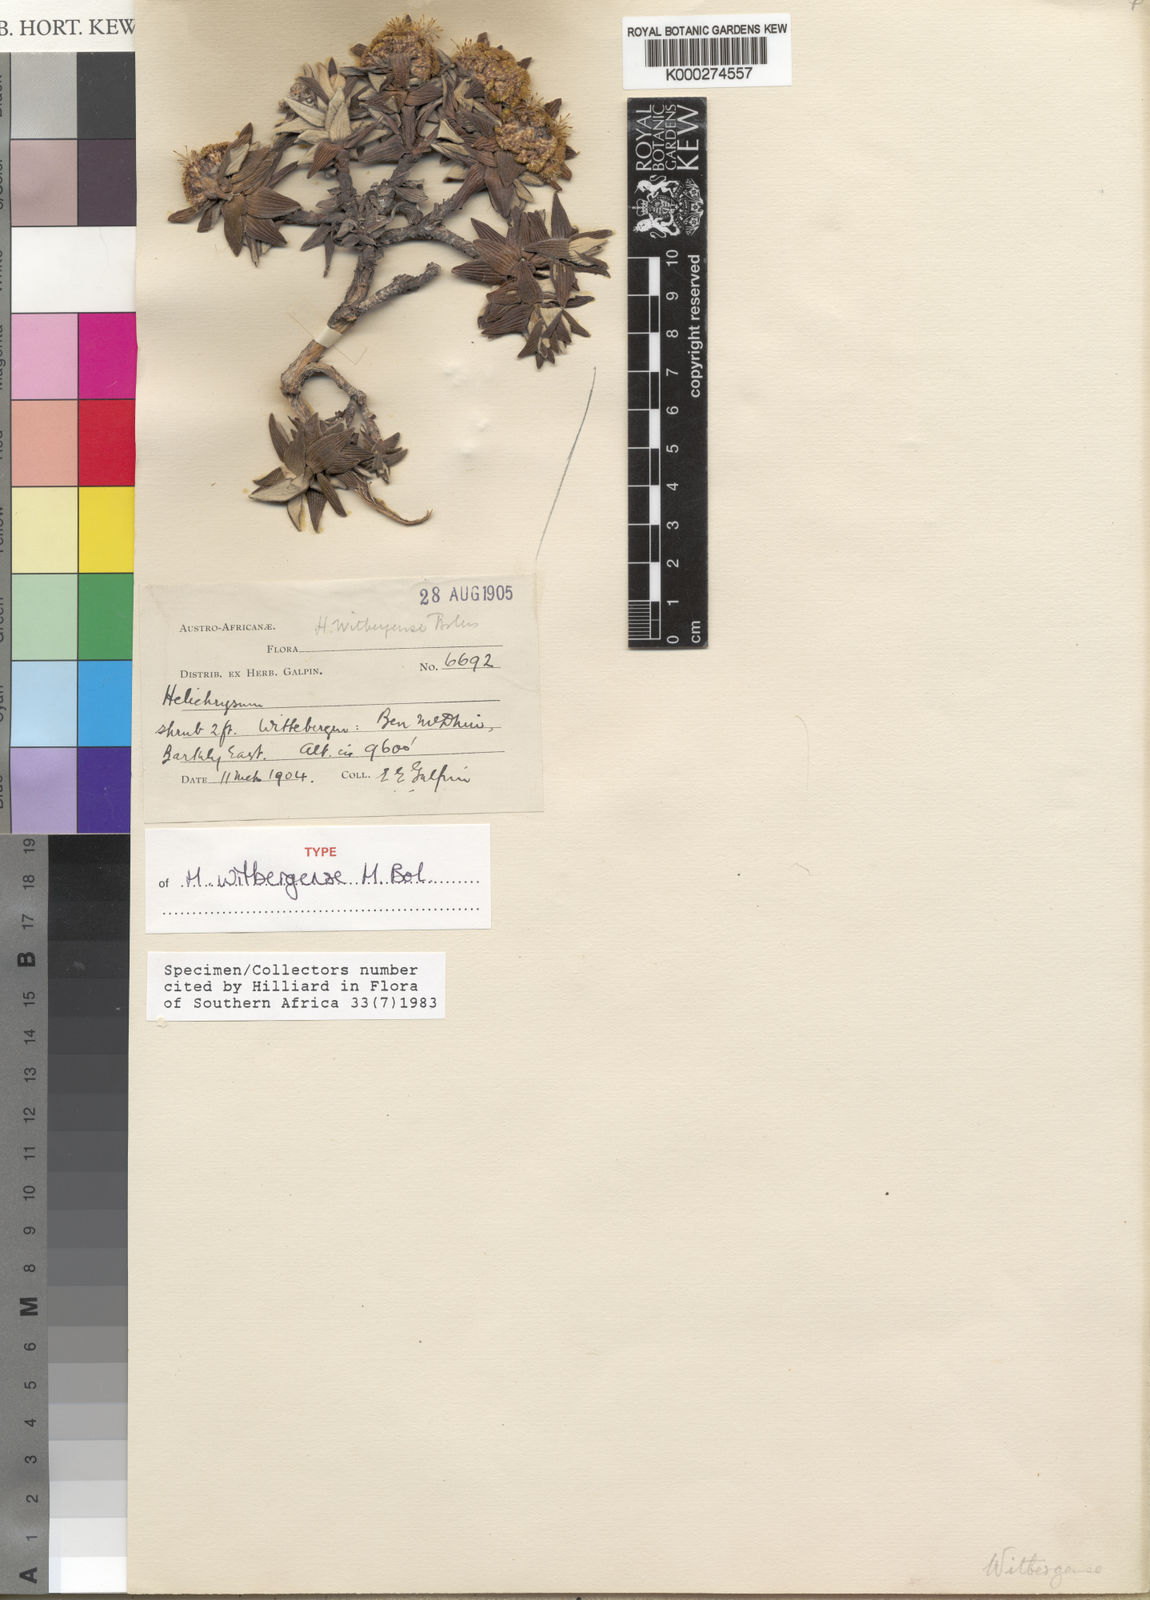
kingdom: Plantae
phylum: Tracheophyta
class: Magnoliopsida
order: Asterales
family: Asteraceae
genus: Helichrysum
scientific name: Helichrysum witbergense
